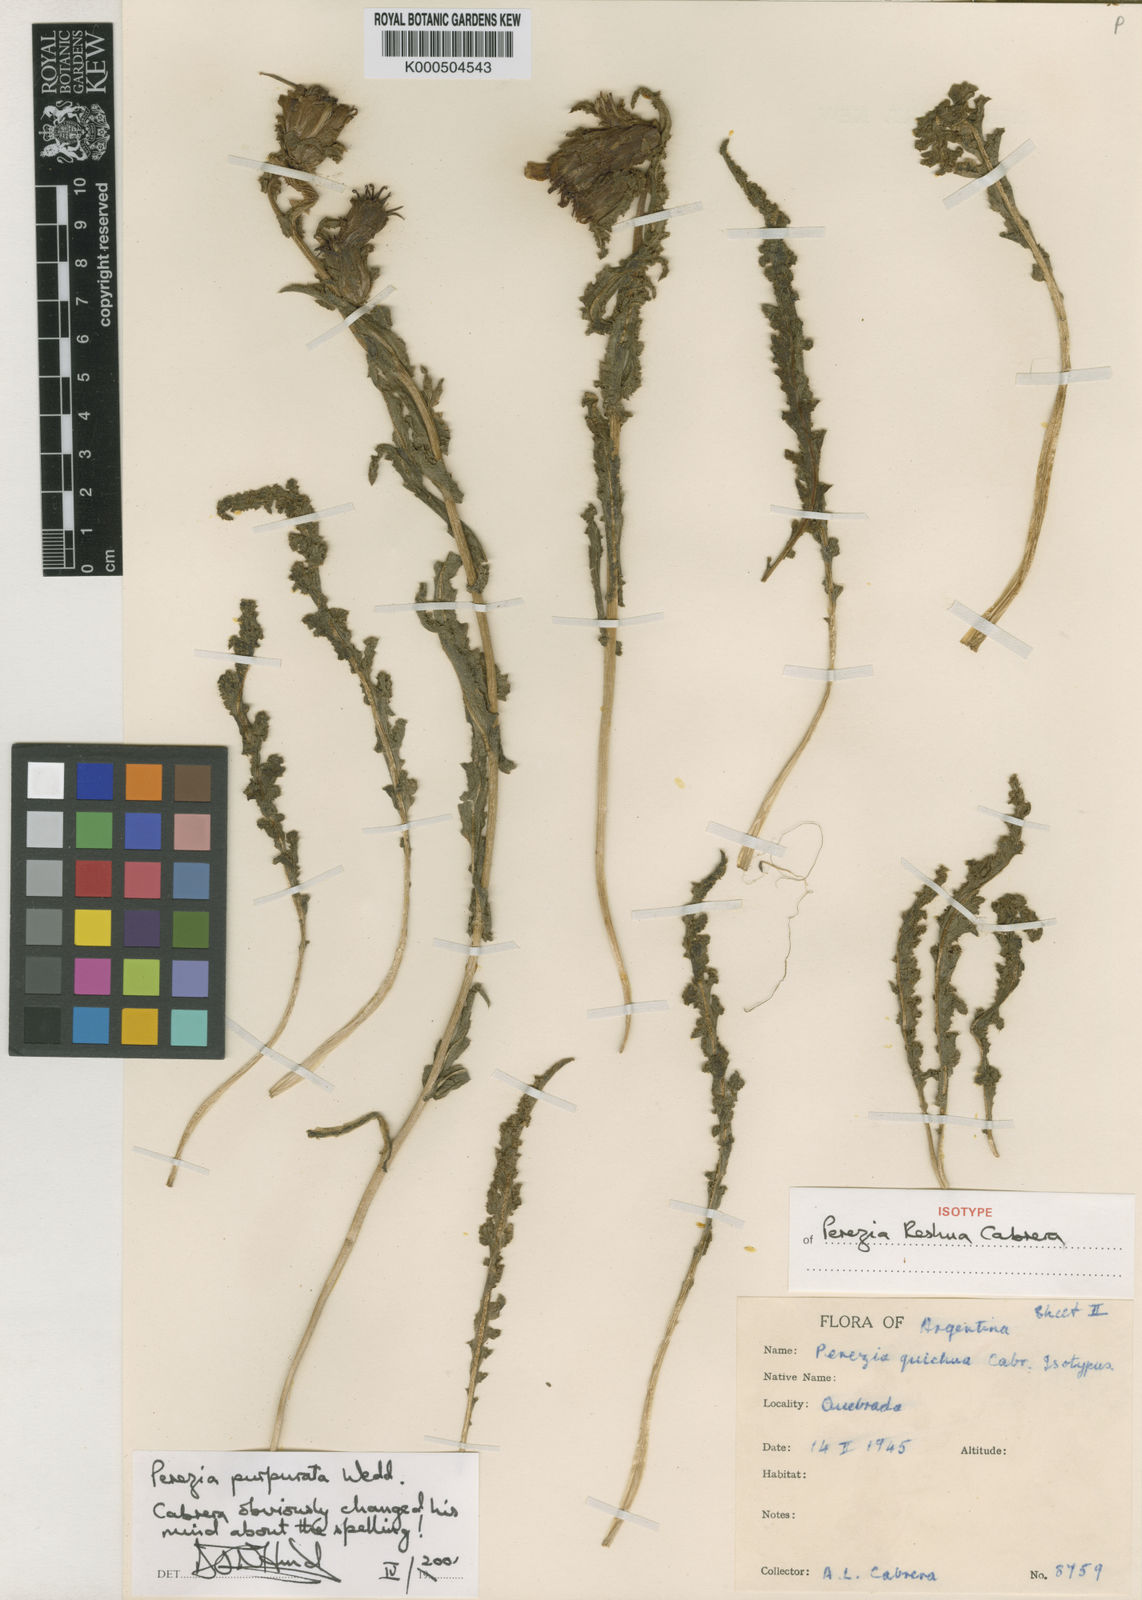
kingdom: Plantae
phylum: Tracheophyta
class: Magnoliopsida
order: Asterales
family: Asteraceae
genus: Perezia
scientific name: Perezia purpurata
